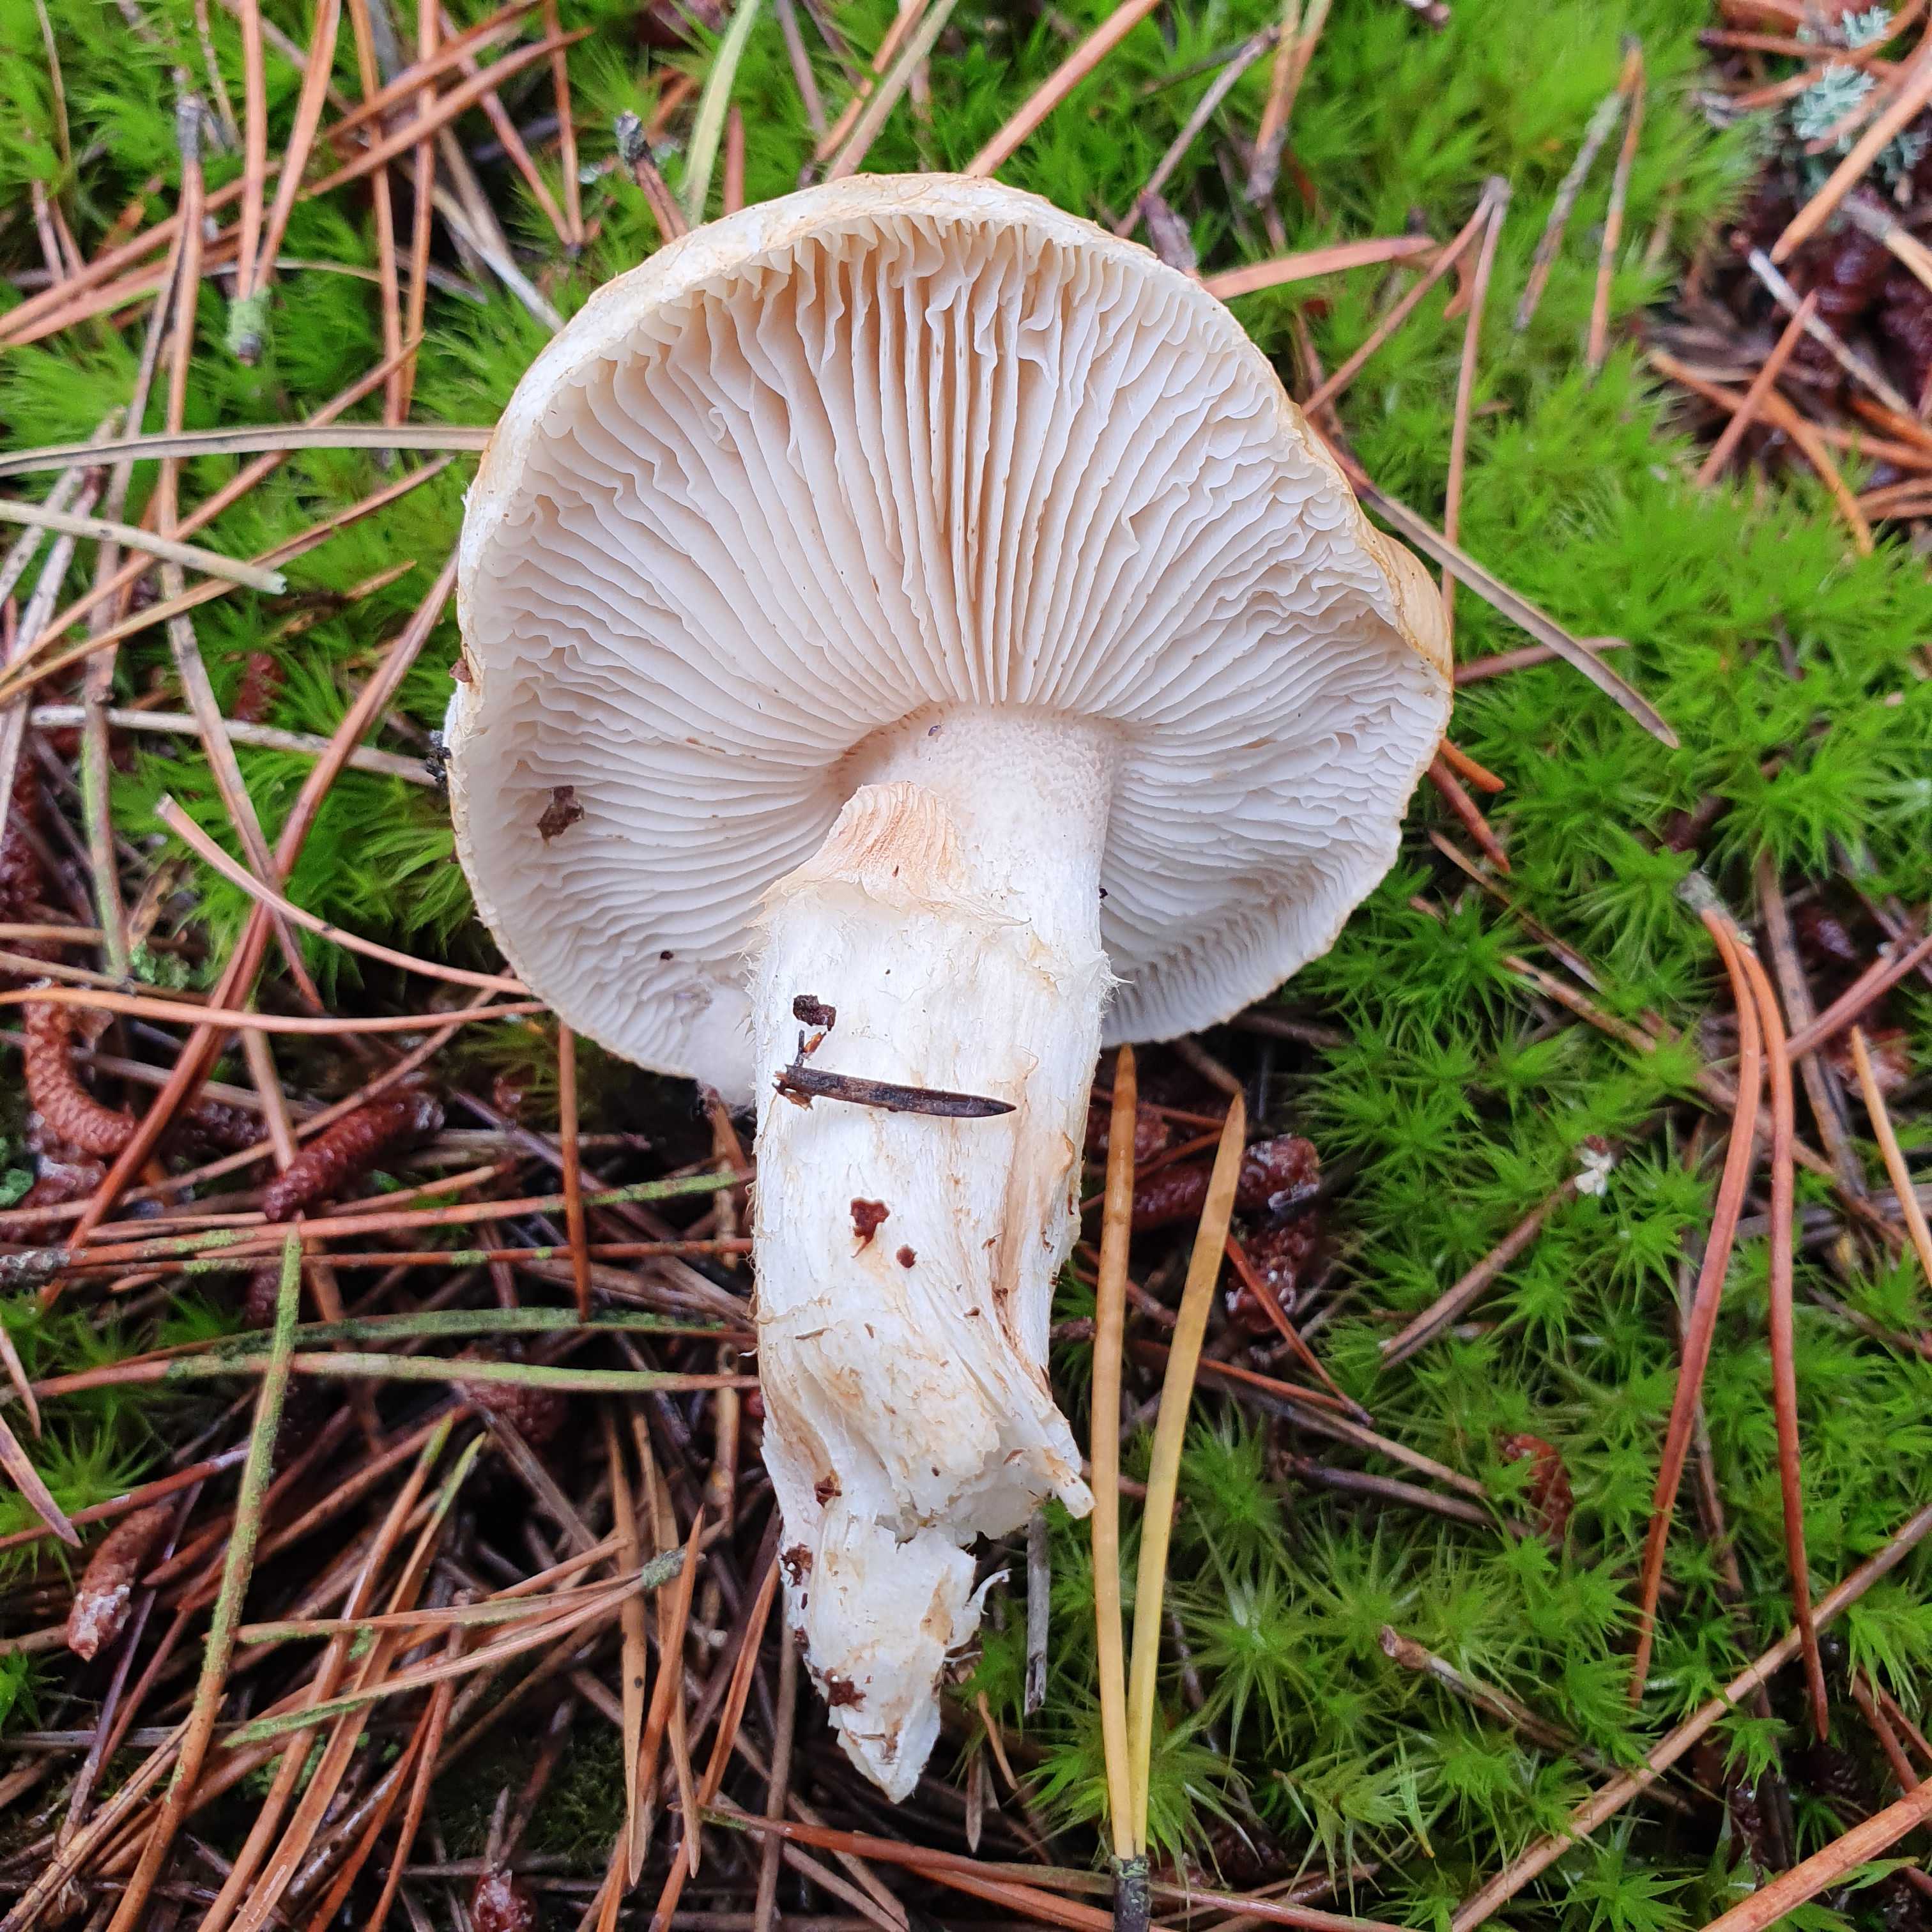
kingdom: Fungi
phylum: Basidiomycota
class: Agaricomycetes
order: Agaricales
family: Tricholomataceae
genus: Tricholoma
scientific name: Tricholoma focale
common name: halsbånd-ridderhat
